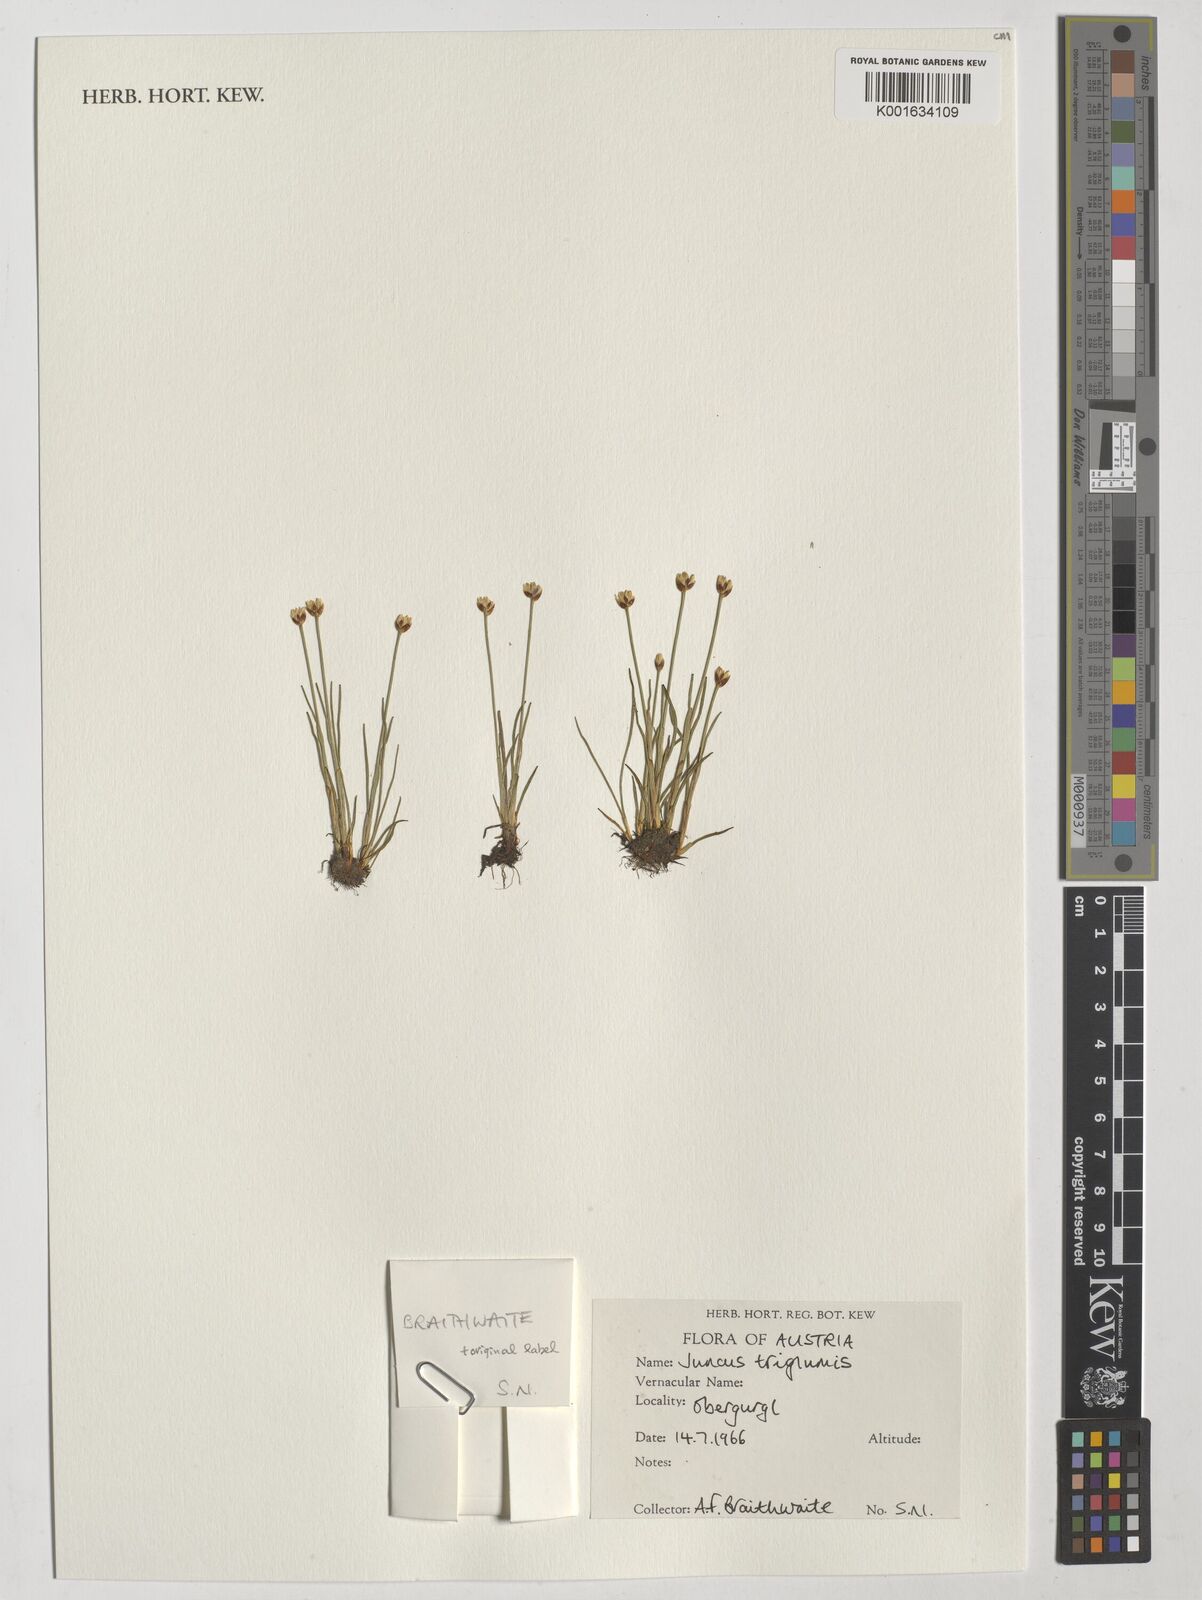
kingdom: Plantae
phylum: Tracheophyta
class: Liliopsida
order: Poales
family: Juncaceae
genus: Juncus
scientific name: Juncus triglumis
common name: Three-flowered rush
